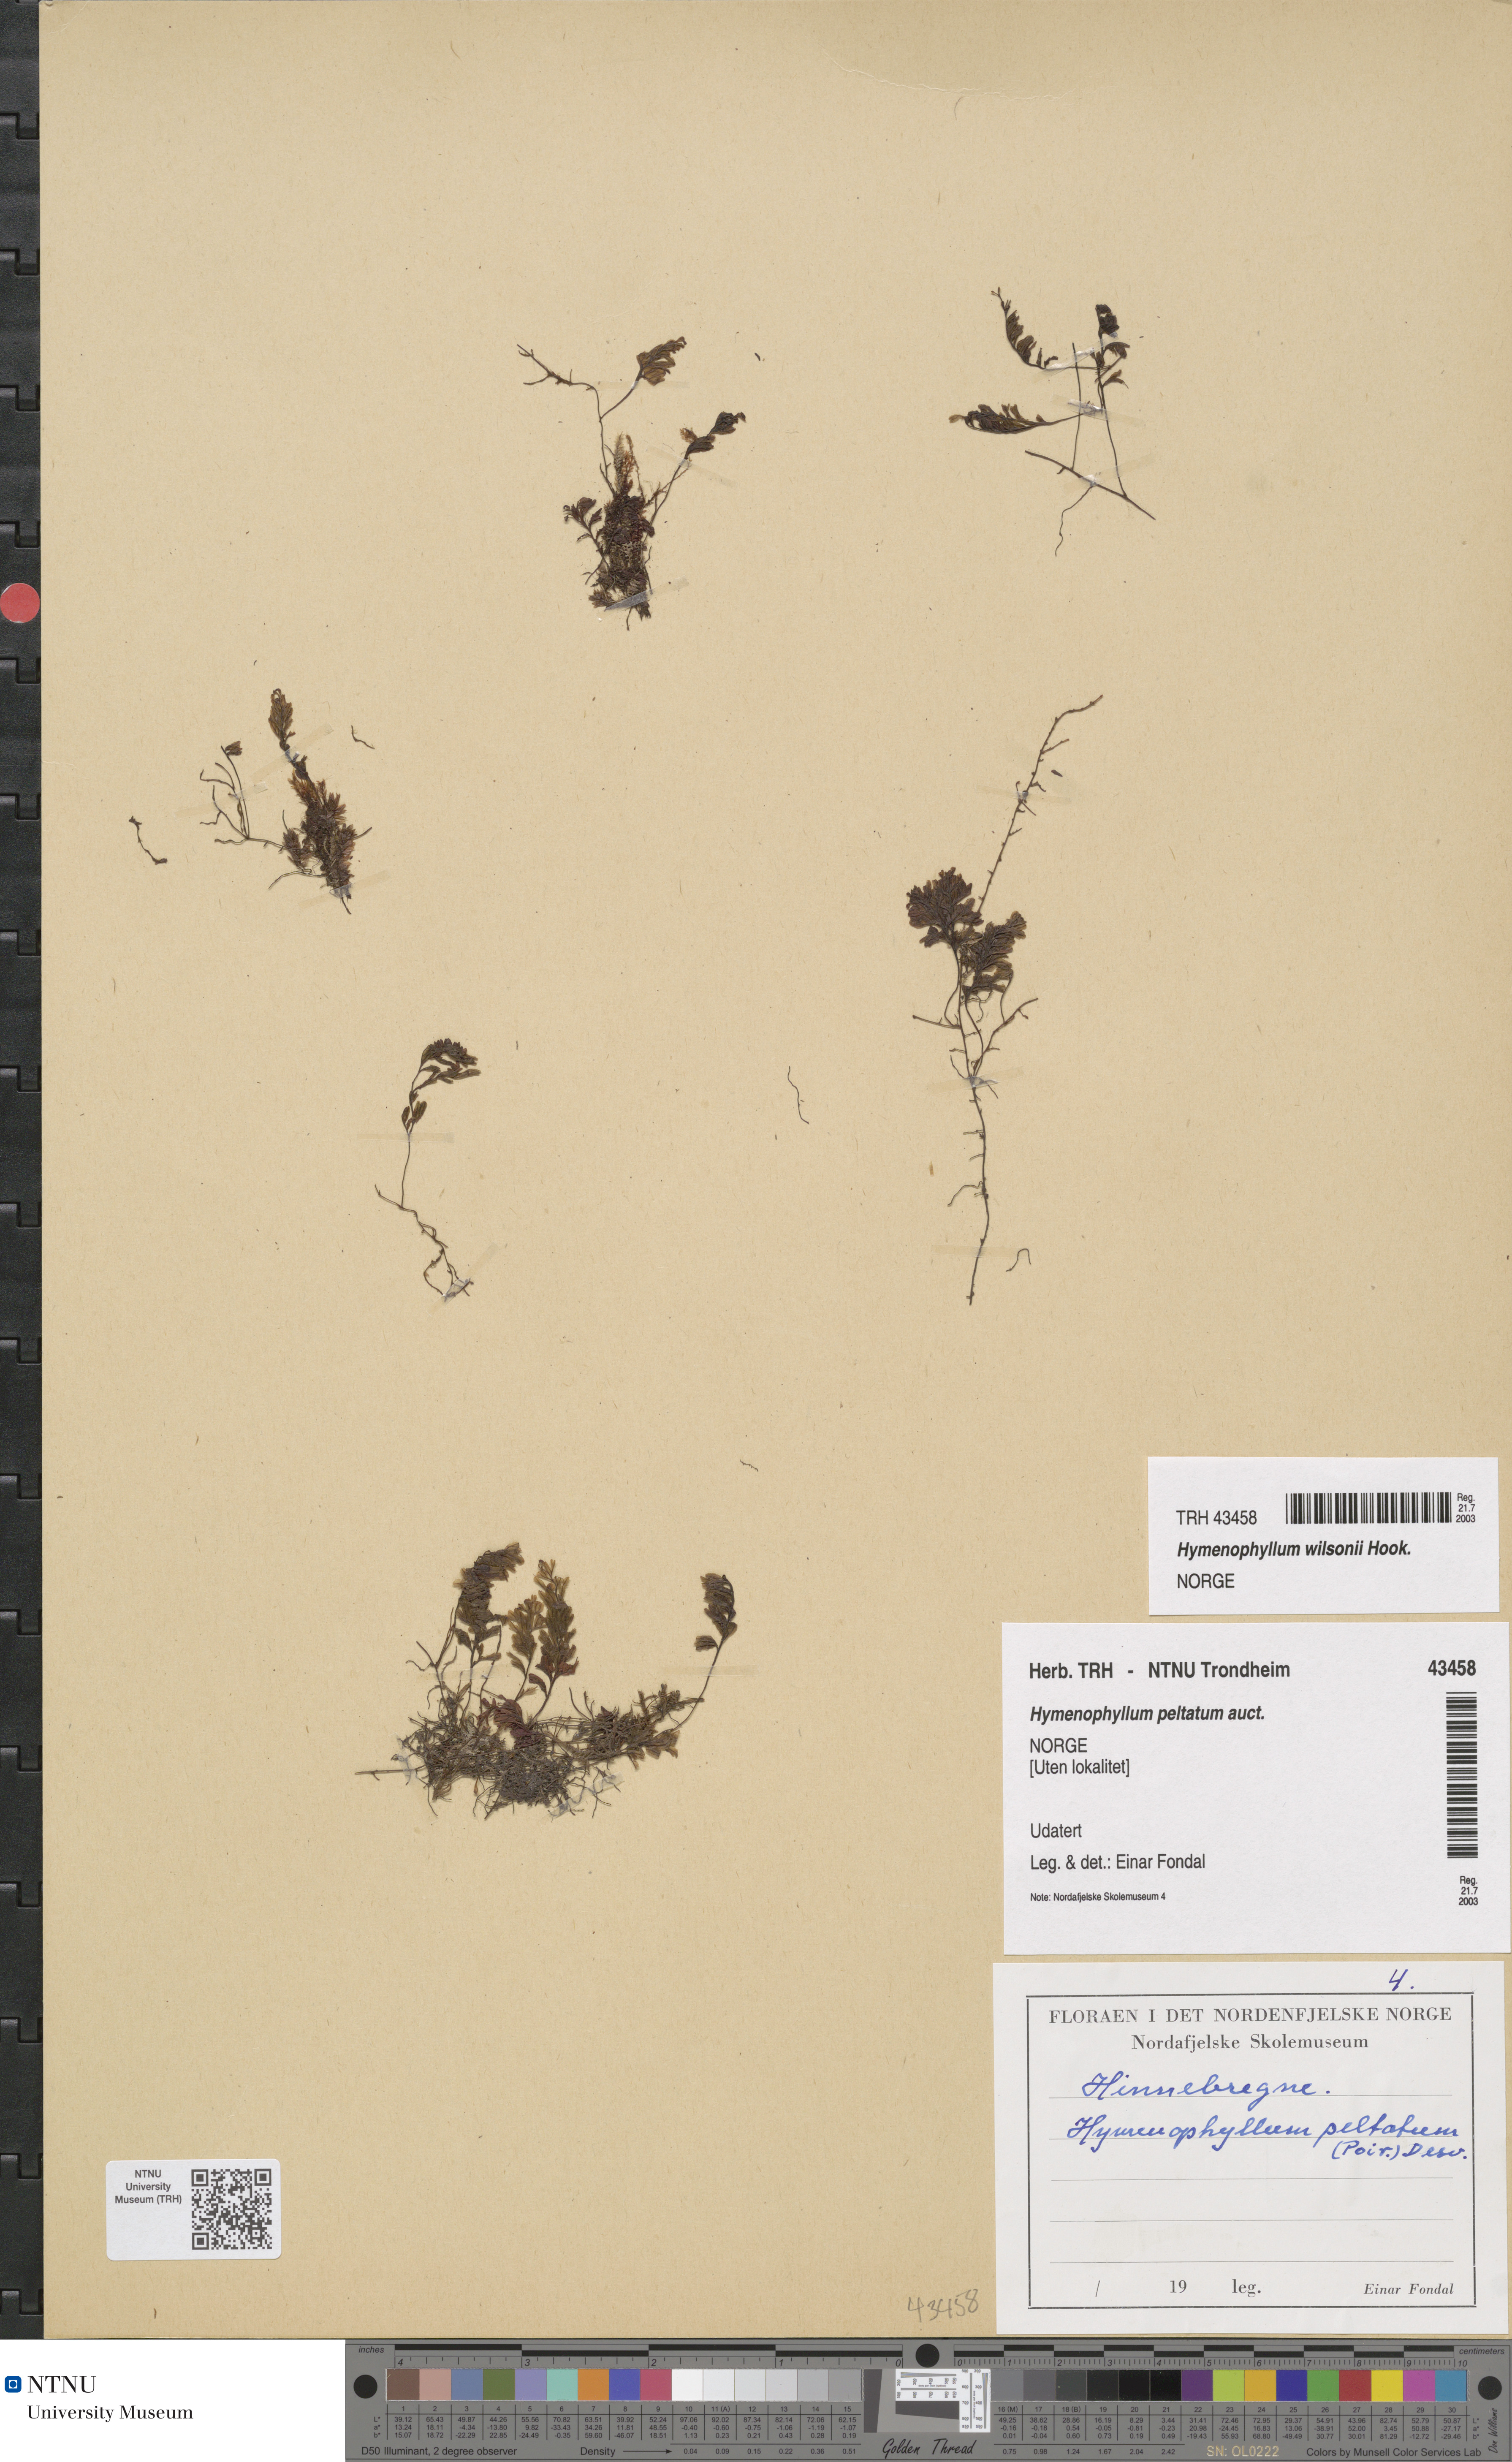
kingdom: Plantae
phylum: Tracheophyta
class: Polypodiopsida
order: Hymenophyllales
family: Hymenophyllaceae
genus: Hymenophyllum
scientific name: Hymenophyllum peltatum
